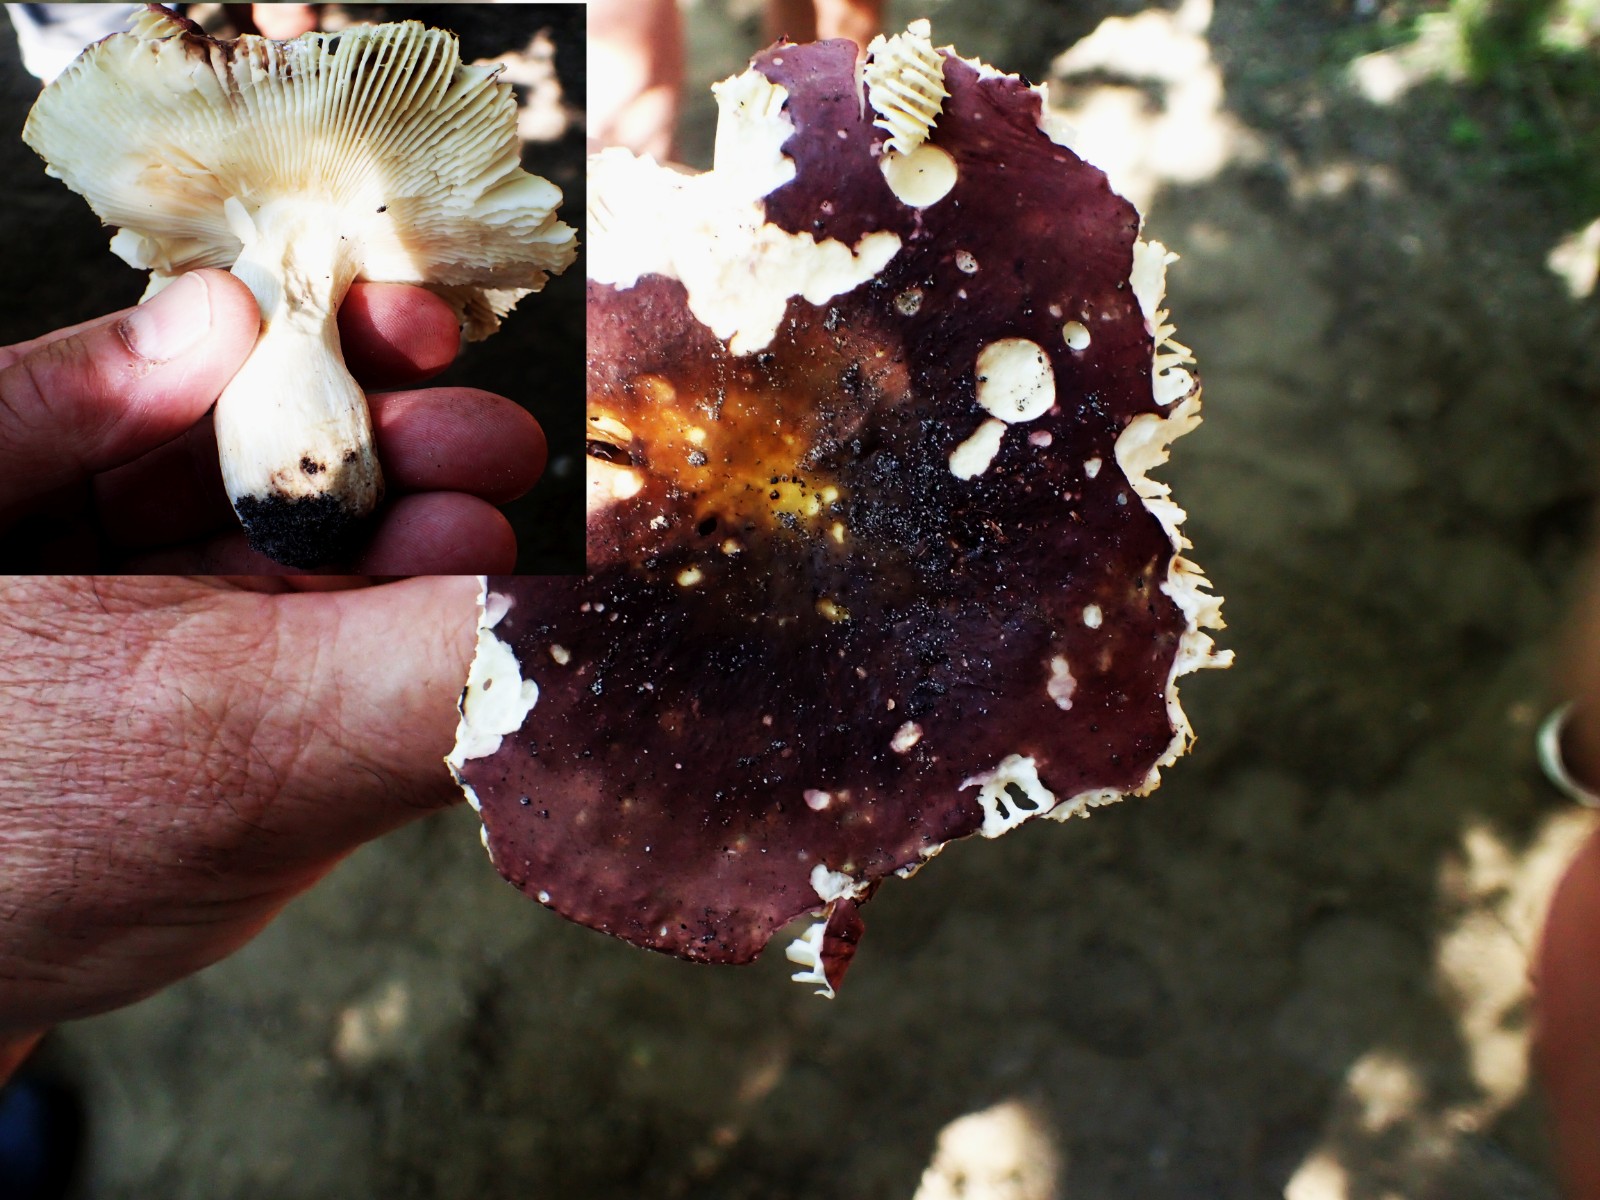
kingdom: Fungi
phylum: Basidiomycota
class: Agaricomycetes
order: Russulales
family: Russulaceae
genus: Russula
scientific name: Russula xerampelina
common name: hummer-skørhat
